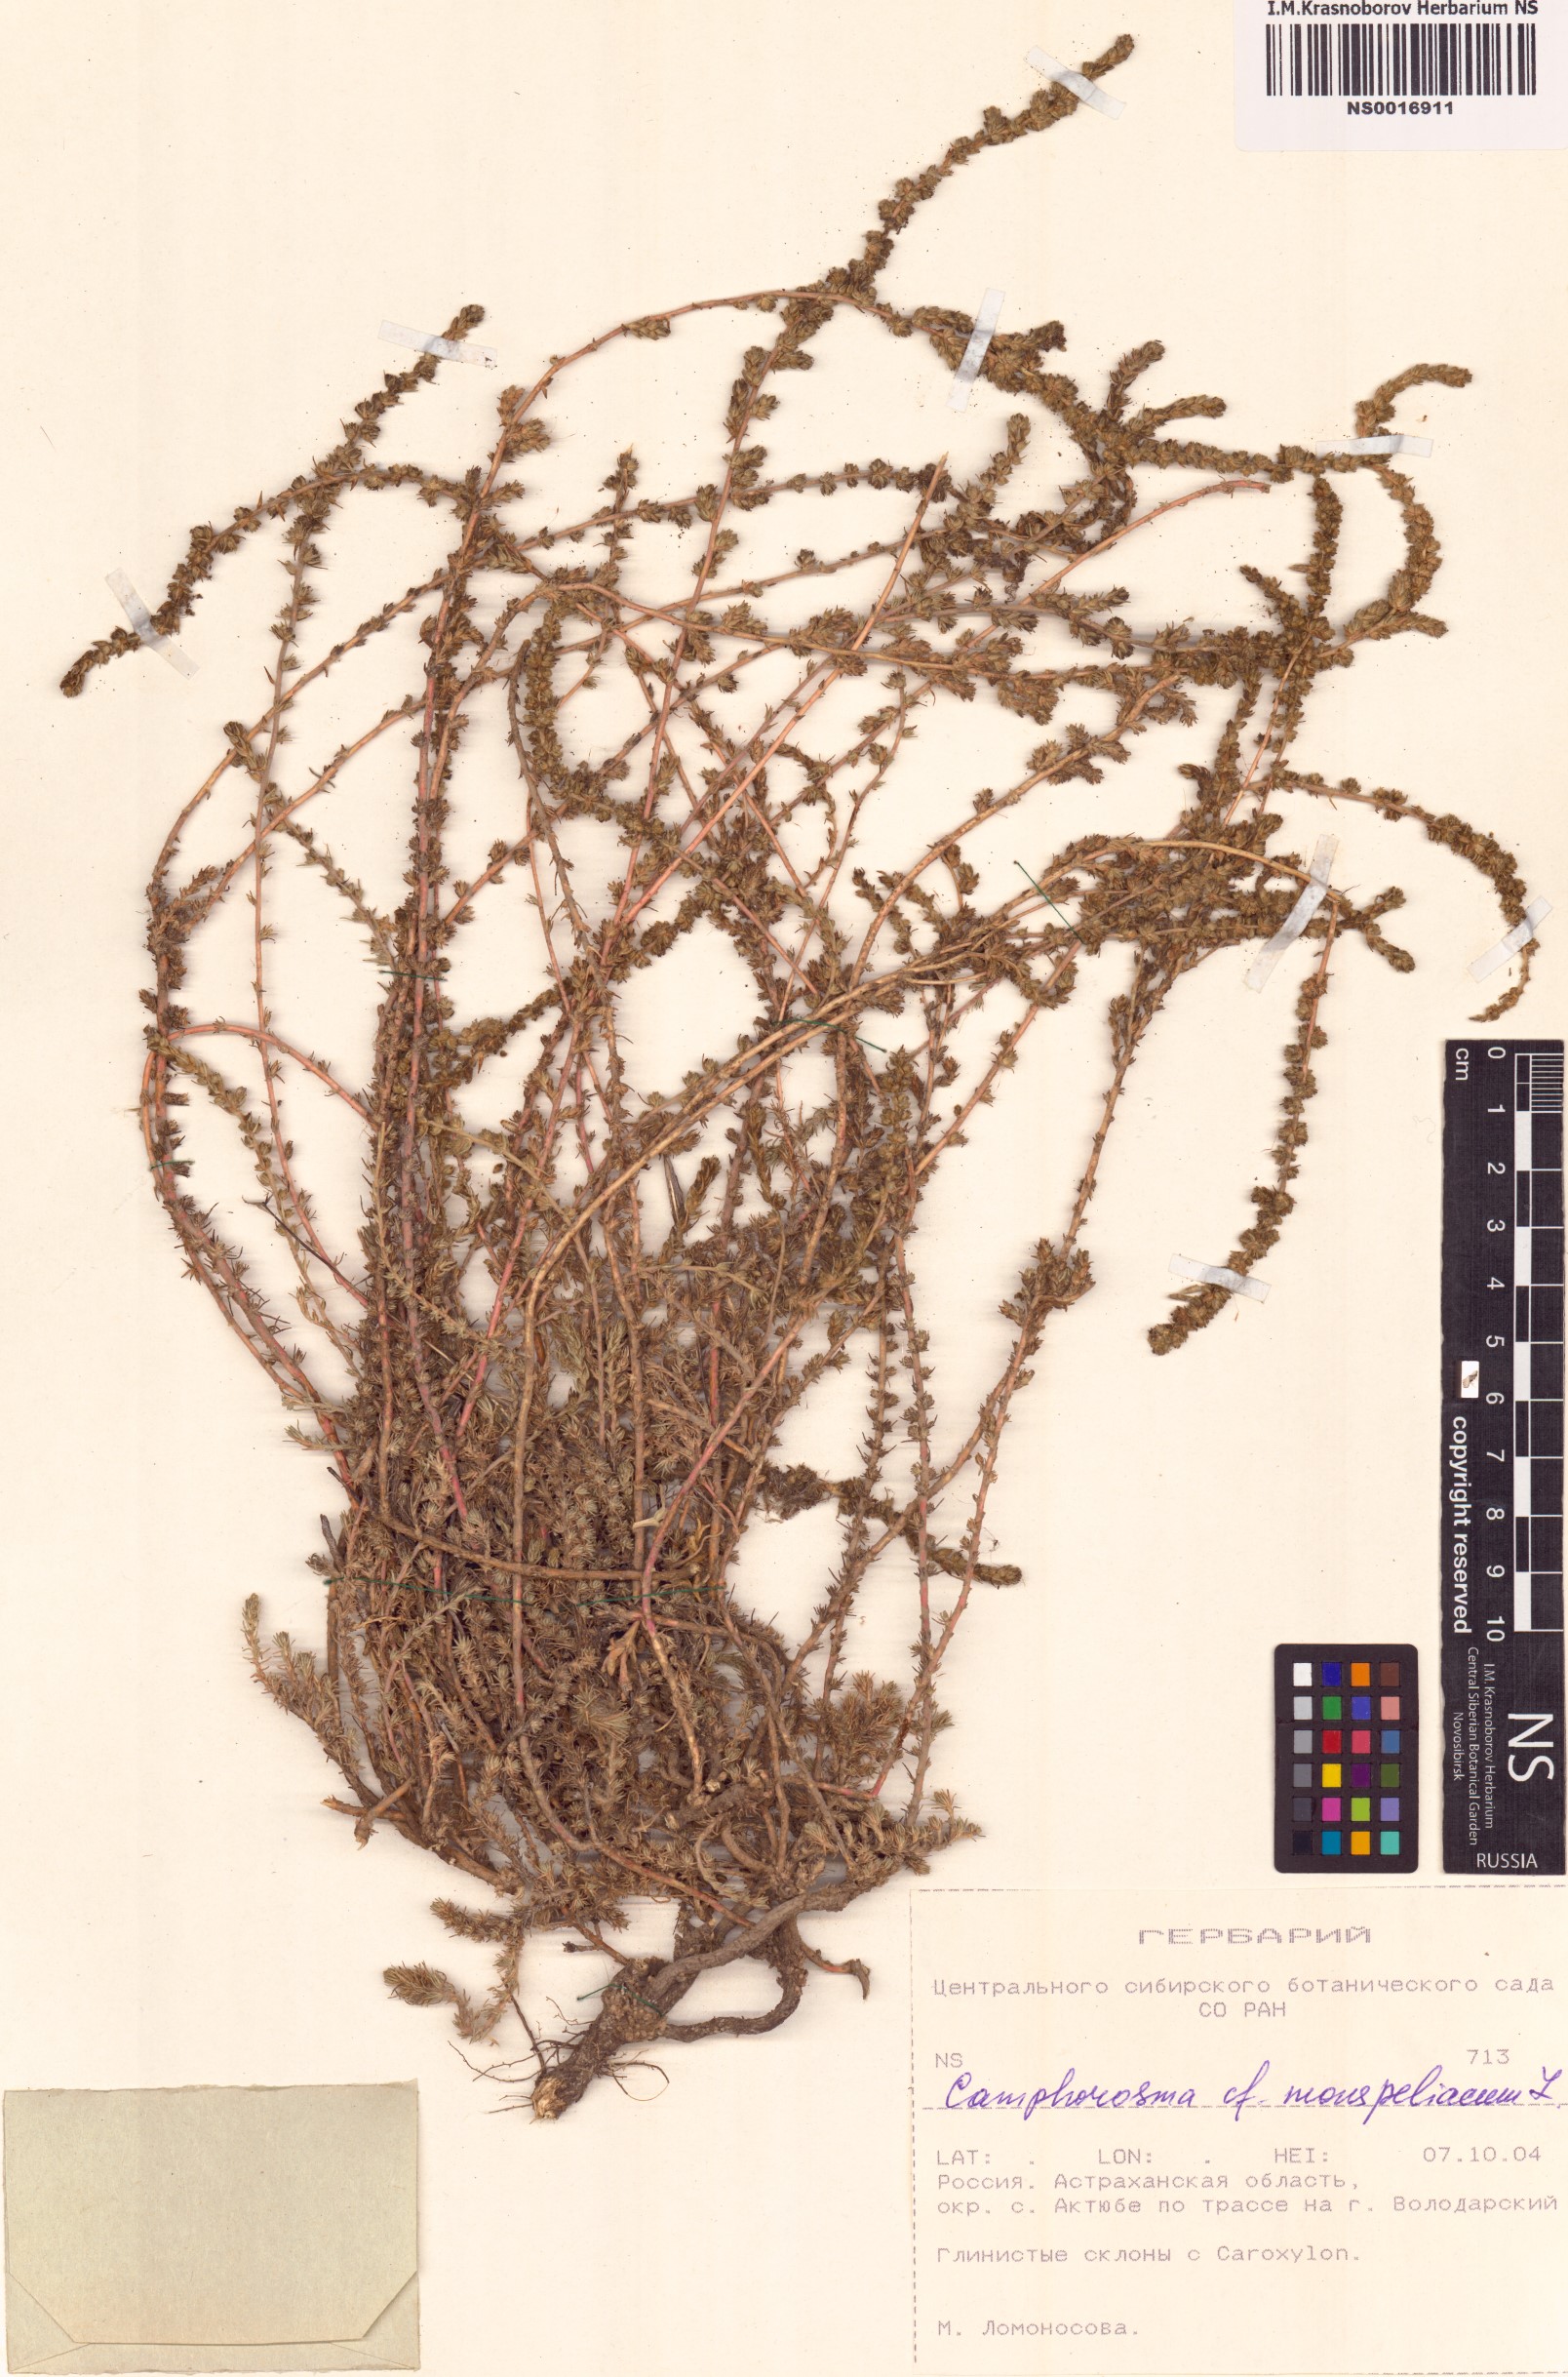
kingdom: Plantae
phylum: Tracheophyta
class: Magnoliopsida
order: Caryophyllales
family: Amaranthaceae
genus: Camphorosma
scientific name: Camphorosma monspeliaca
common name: Camphorfume
